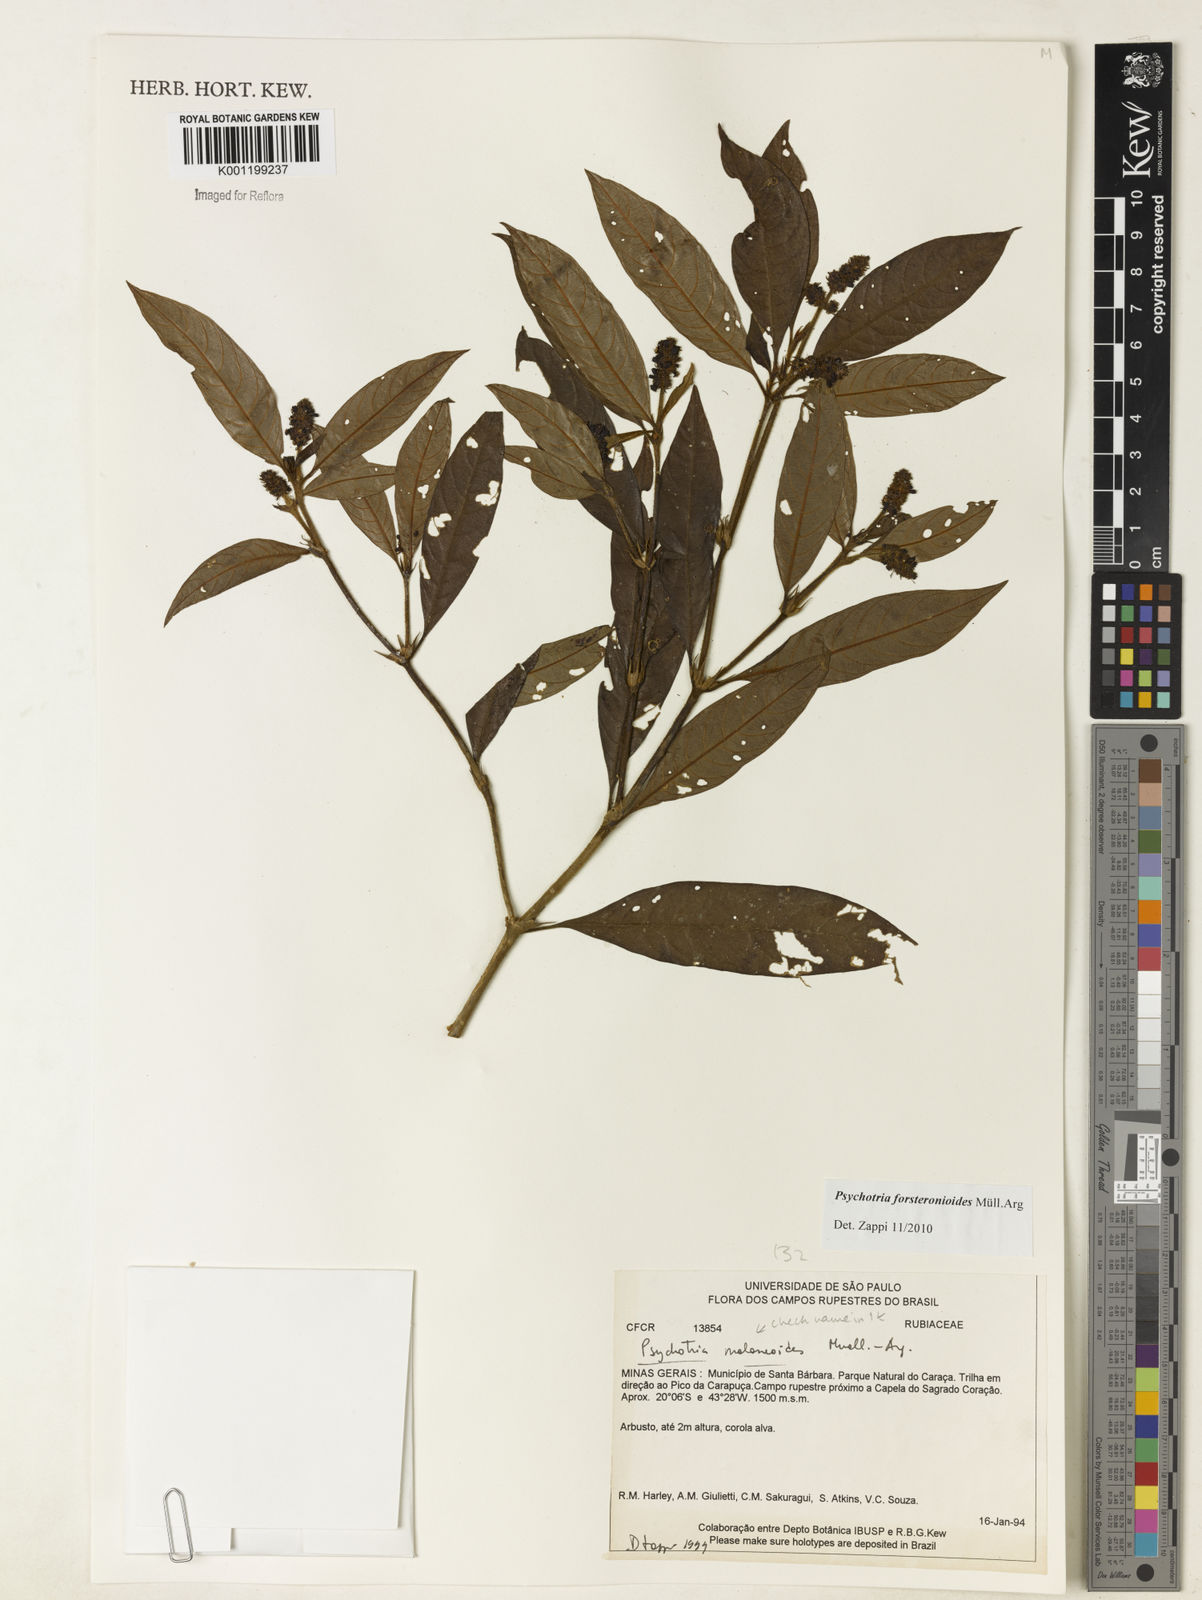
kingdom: Plantae
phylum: Tracheophyta
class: Magnoliopsida
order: Gentianales
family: Rubiaceae
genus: Psychotria
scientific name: Psychotria
